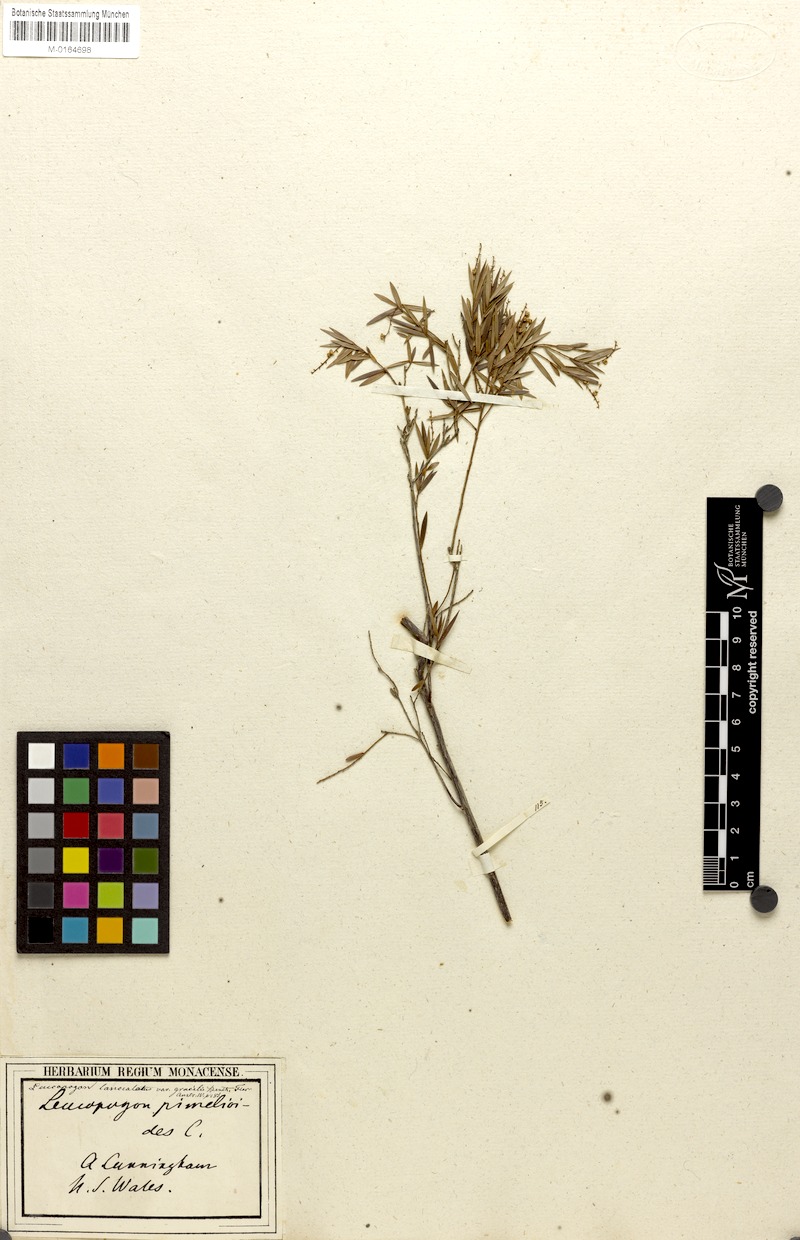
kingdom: Plantae
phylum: Tracheophyta
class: Magnoliopsida
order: Ericales
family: Ericaceae
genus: Leucopogon
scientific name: Leucopogon pimelioides
